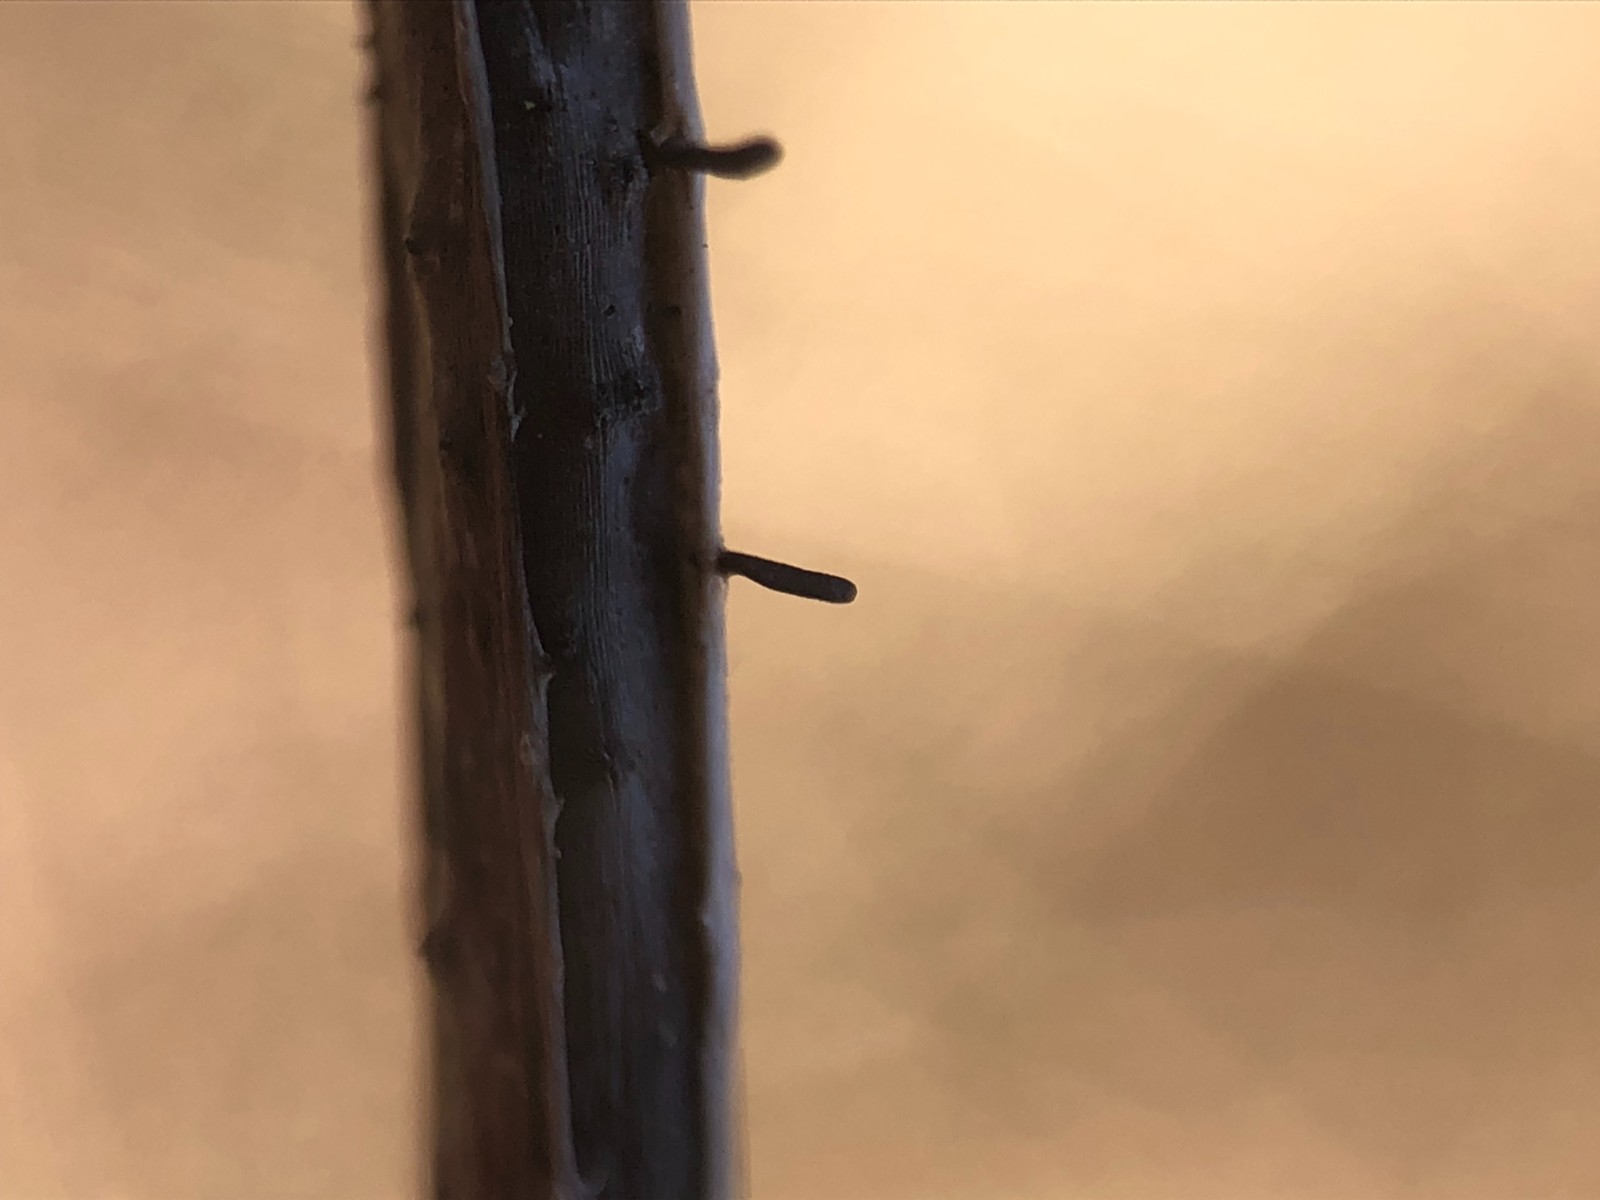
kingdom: Fungi
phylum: Ascomycota
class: Dothideomycetes
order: Acrospermales
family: Acrospermaceae
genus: Acrospermum
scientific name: Acrospermum pallidulum
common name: snerre-stængeltunge
